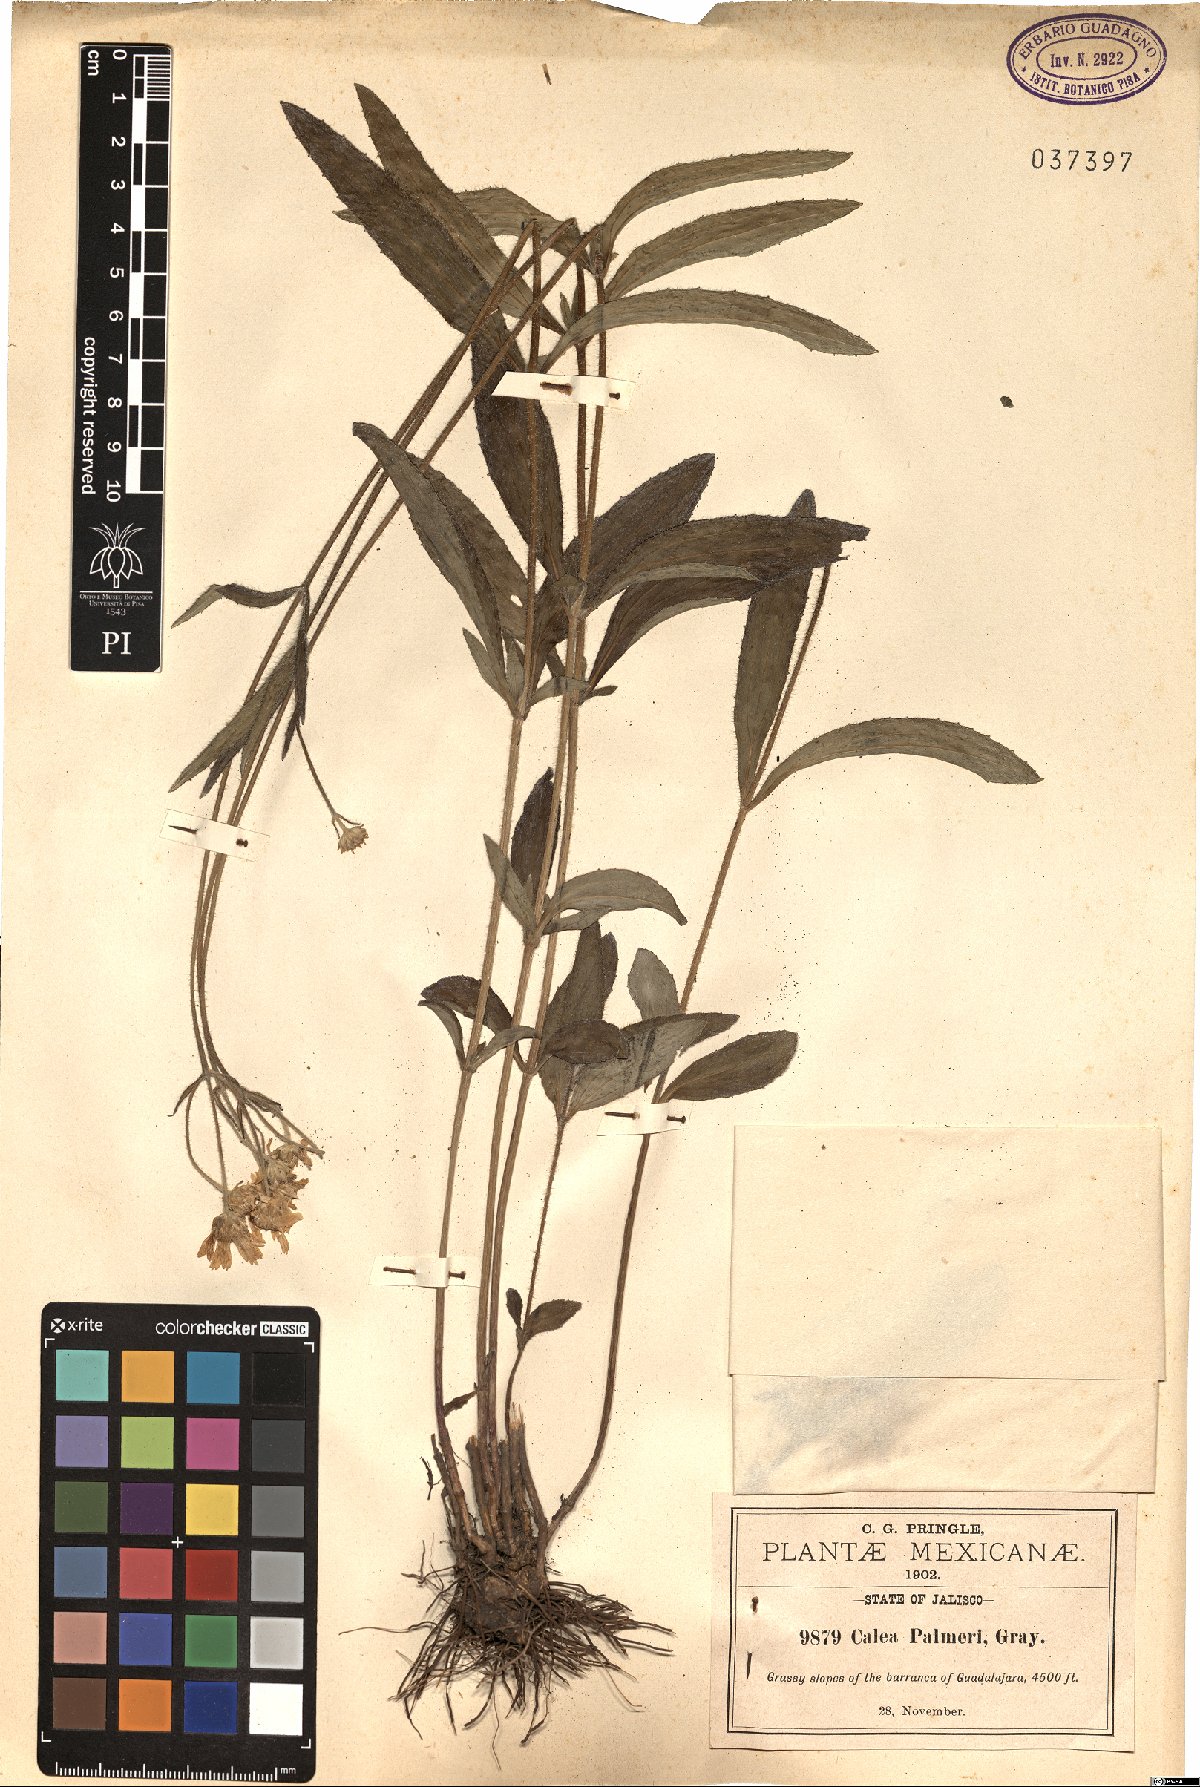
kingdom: Plantae
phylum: Tracheophyta
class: Magnoliopsida
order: Asterales
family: Asteraceae
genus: Alloispermum
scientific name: Alloispermum palmeri
